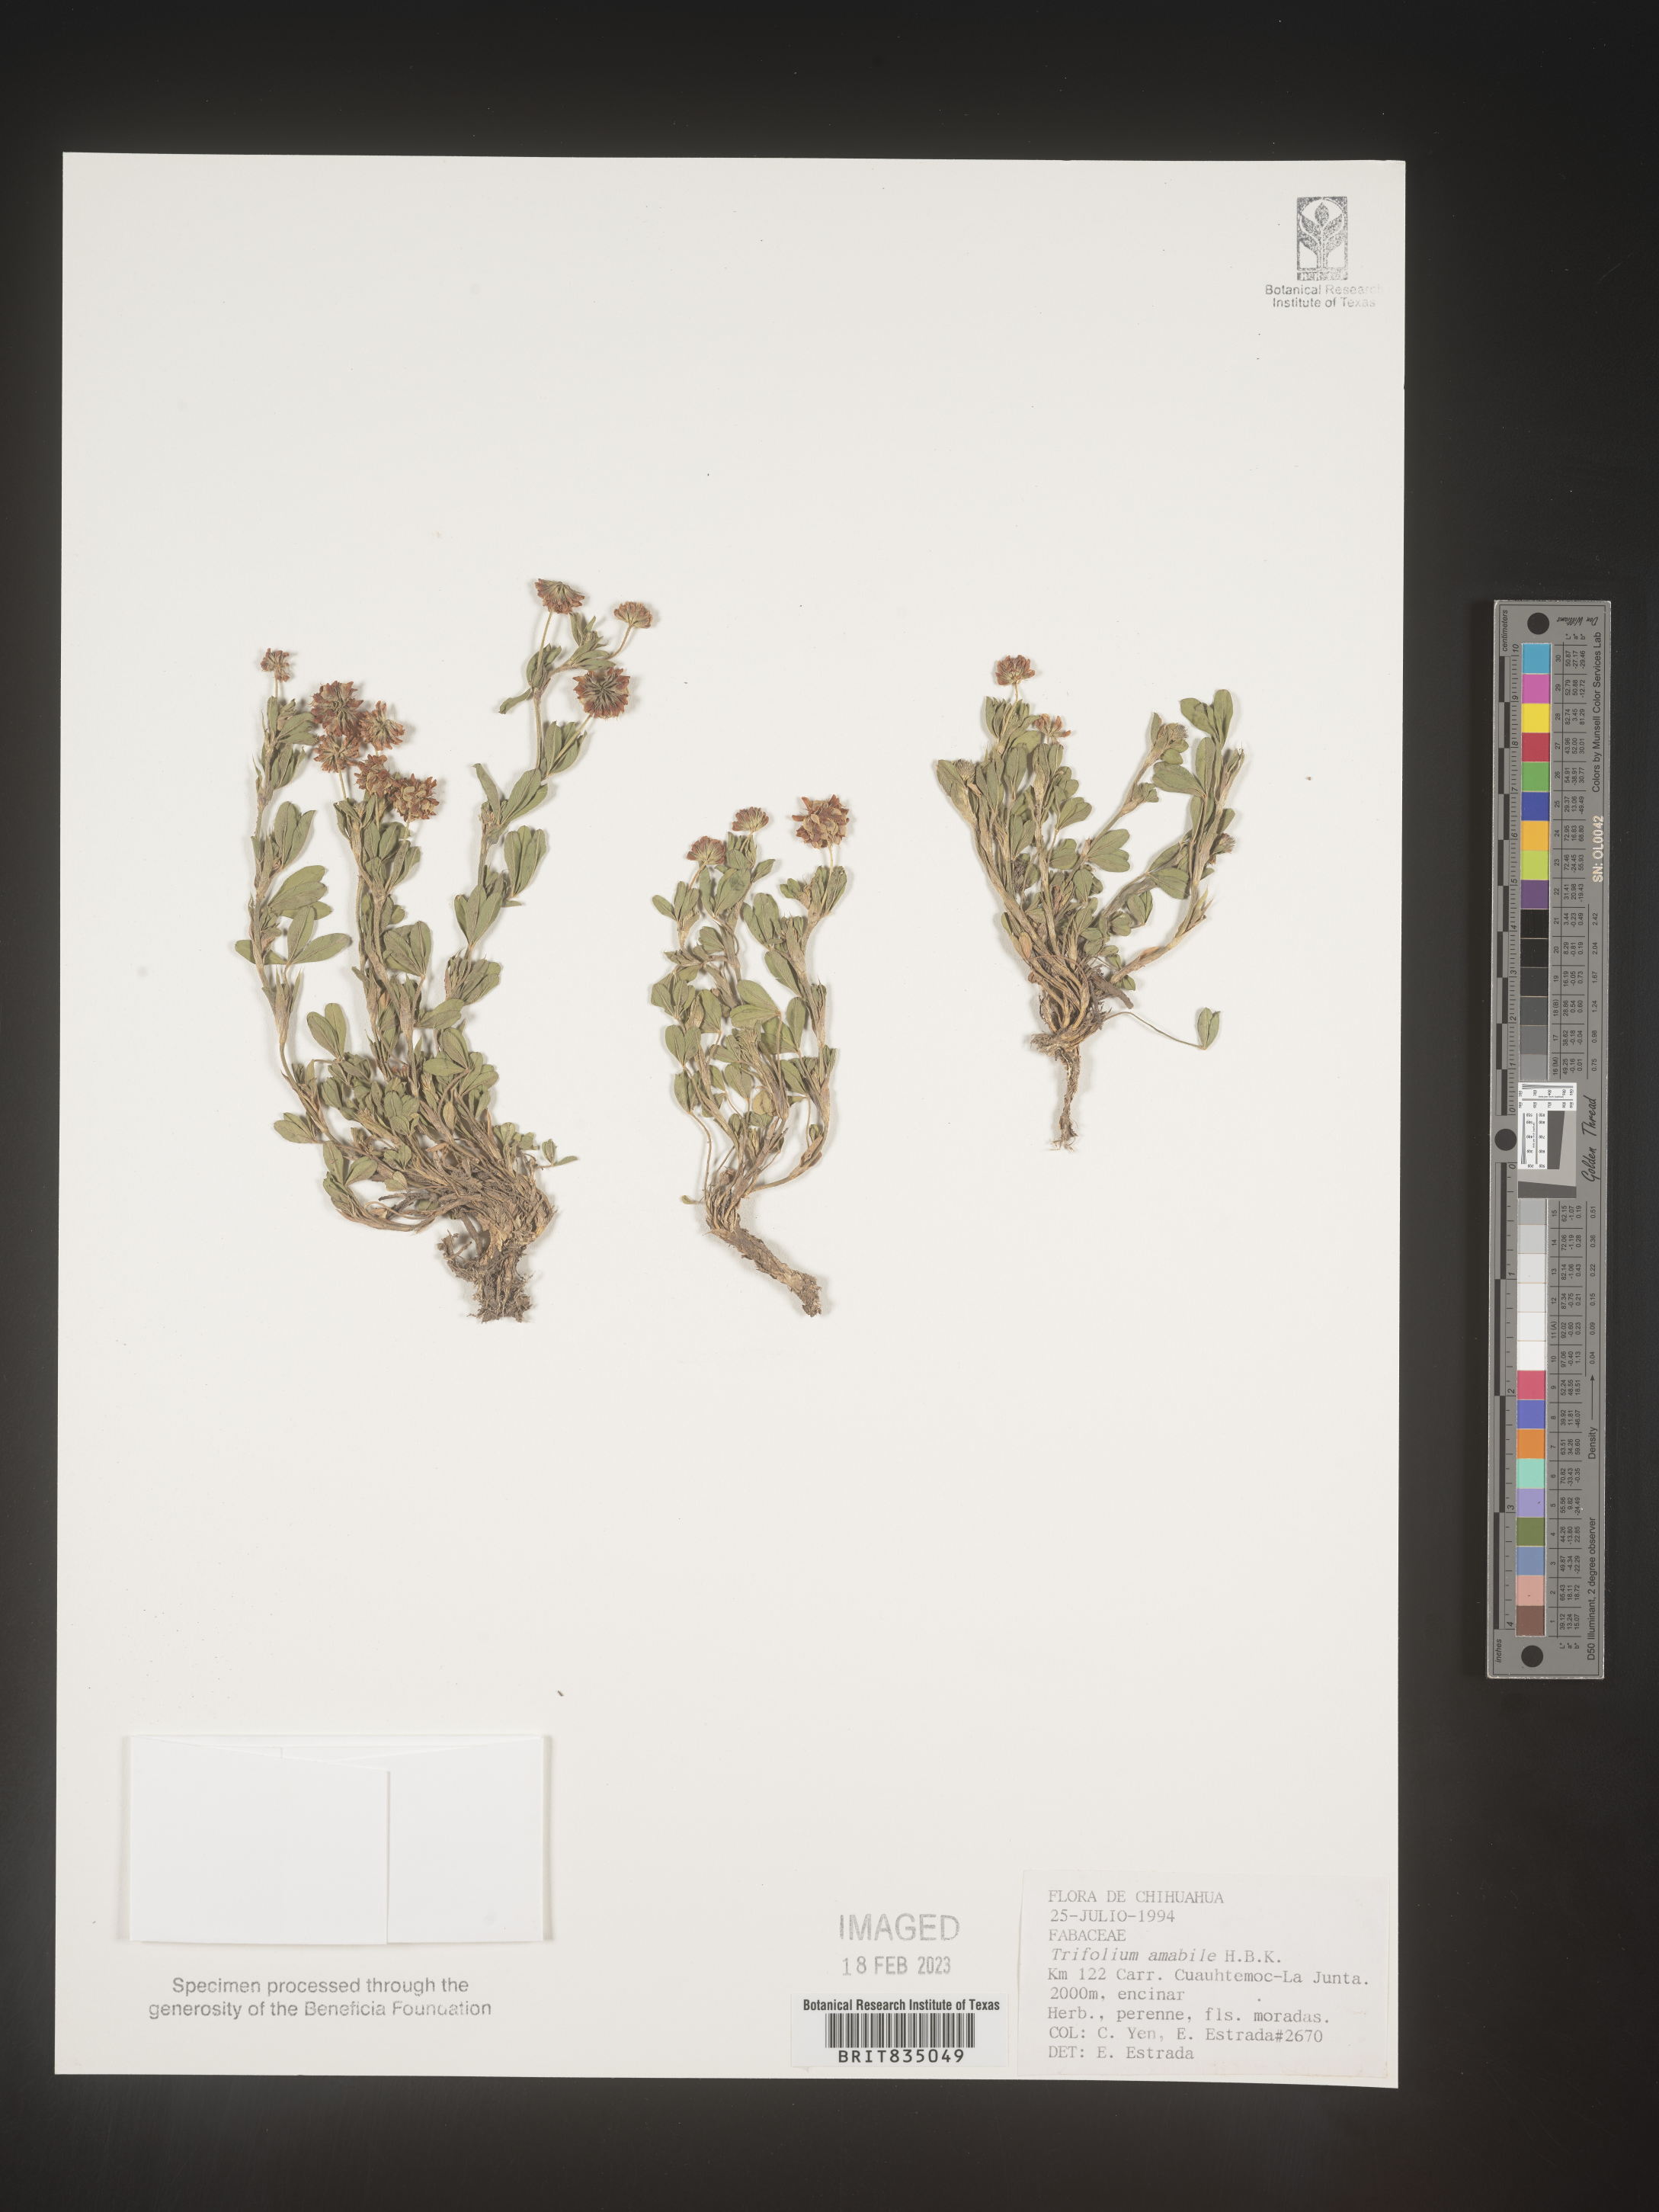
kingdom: Plantae
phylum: Tracheophyta
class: Magnoliopsida
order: Fabales
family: Fabaceae
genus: Trifolium
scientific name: Trifolium
